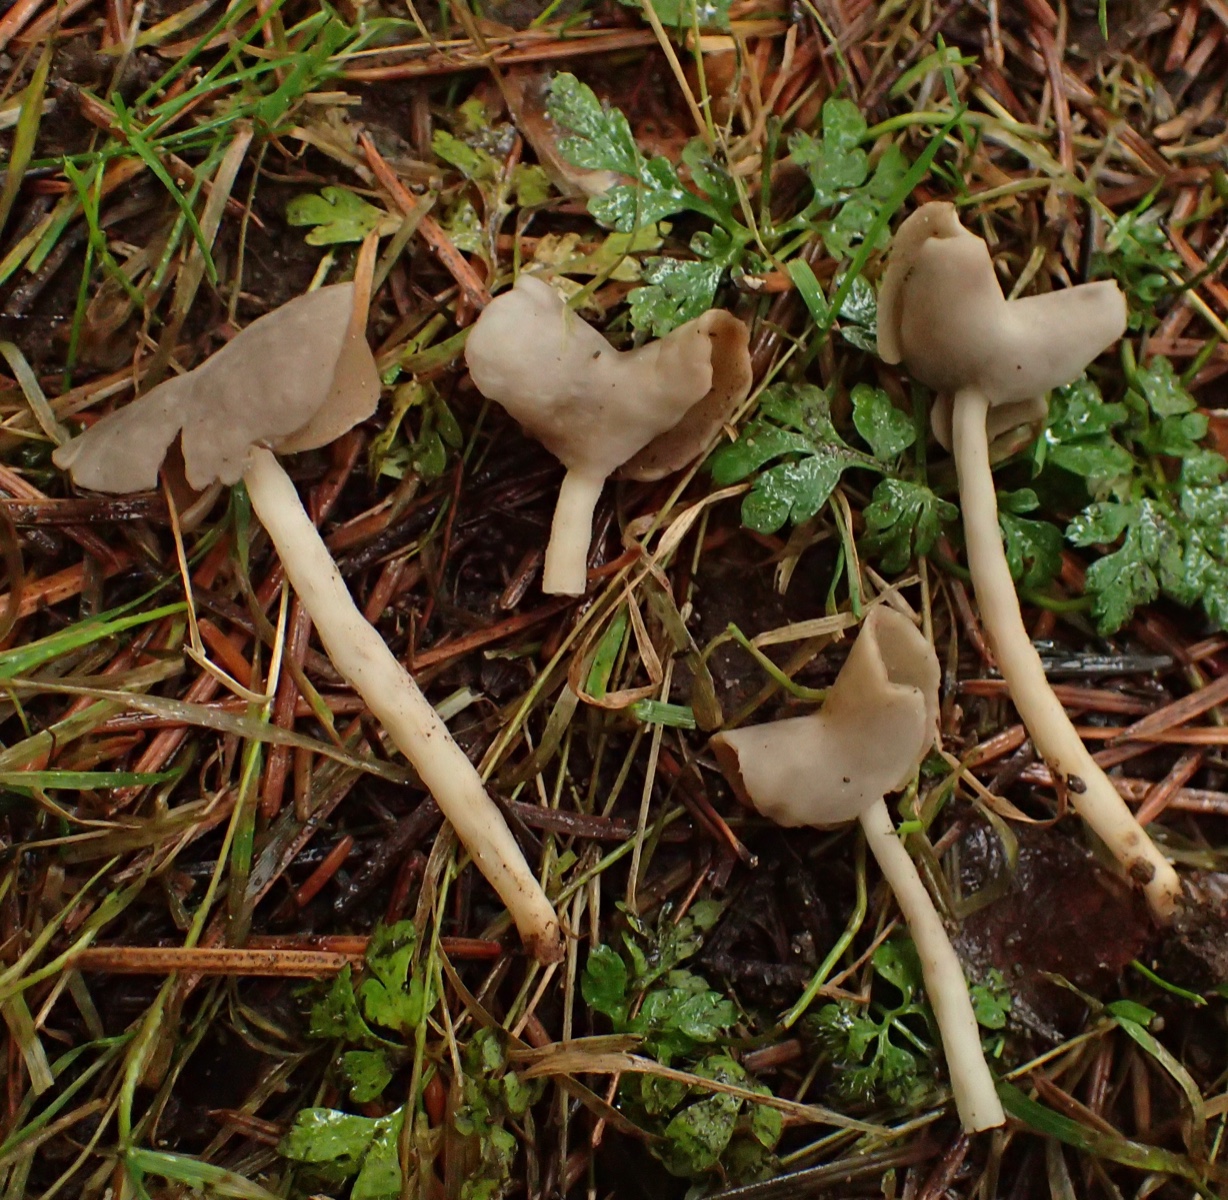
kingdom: Fungi
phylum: Ascomycota
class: Pezizomycetes
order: Pezizales
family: Helvellaceae
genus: Helvella
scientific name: Helvella elastica
